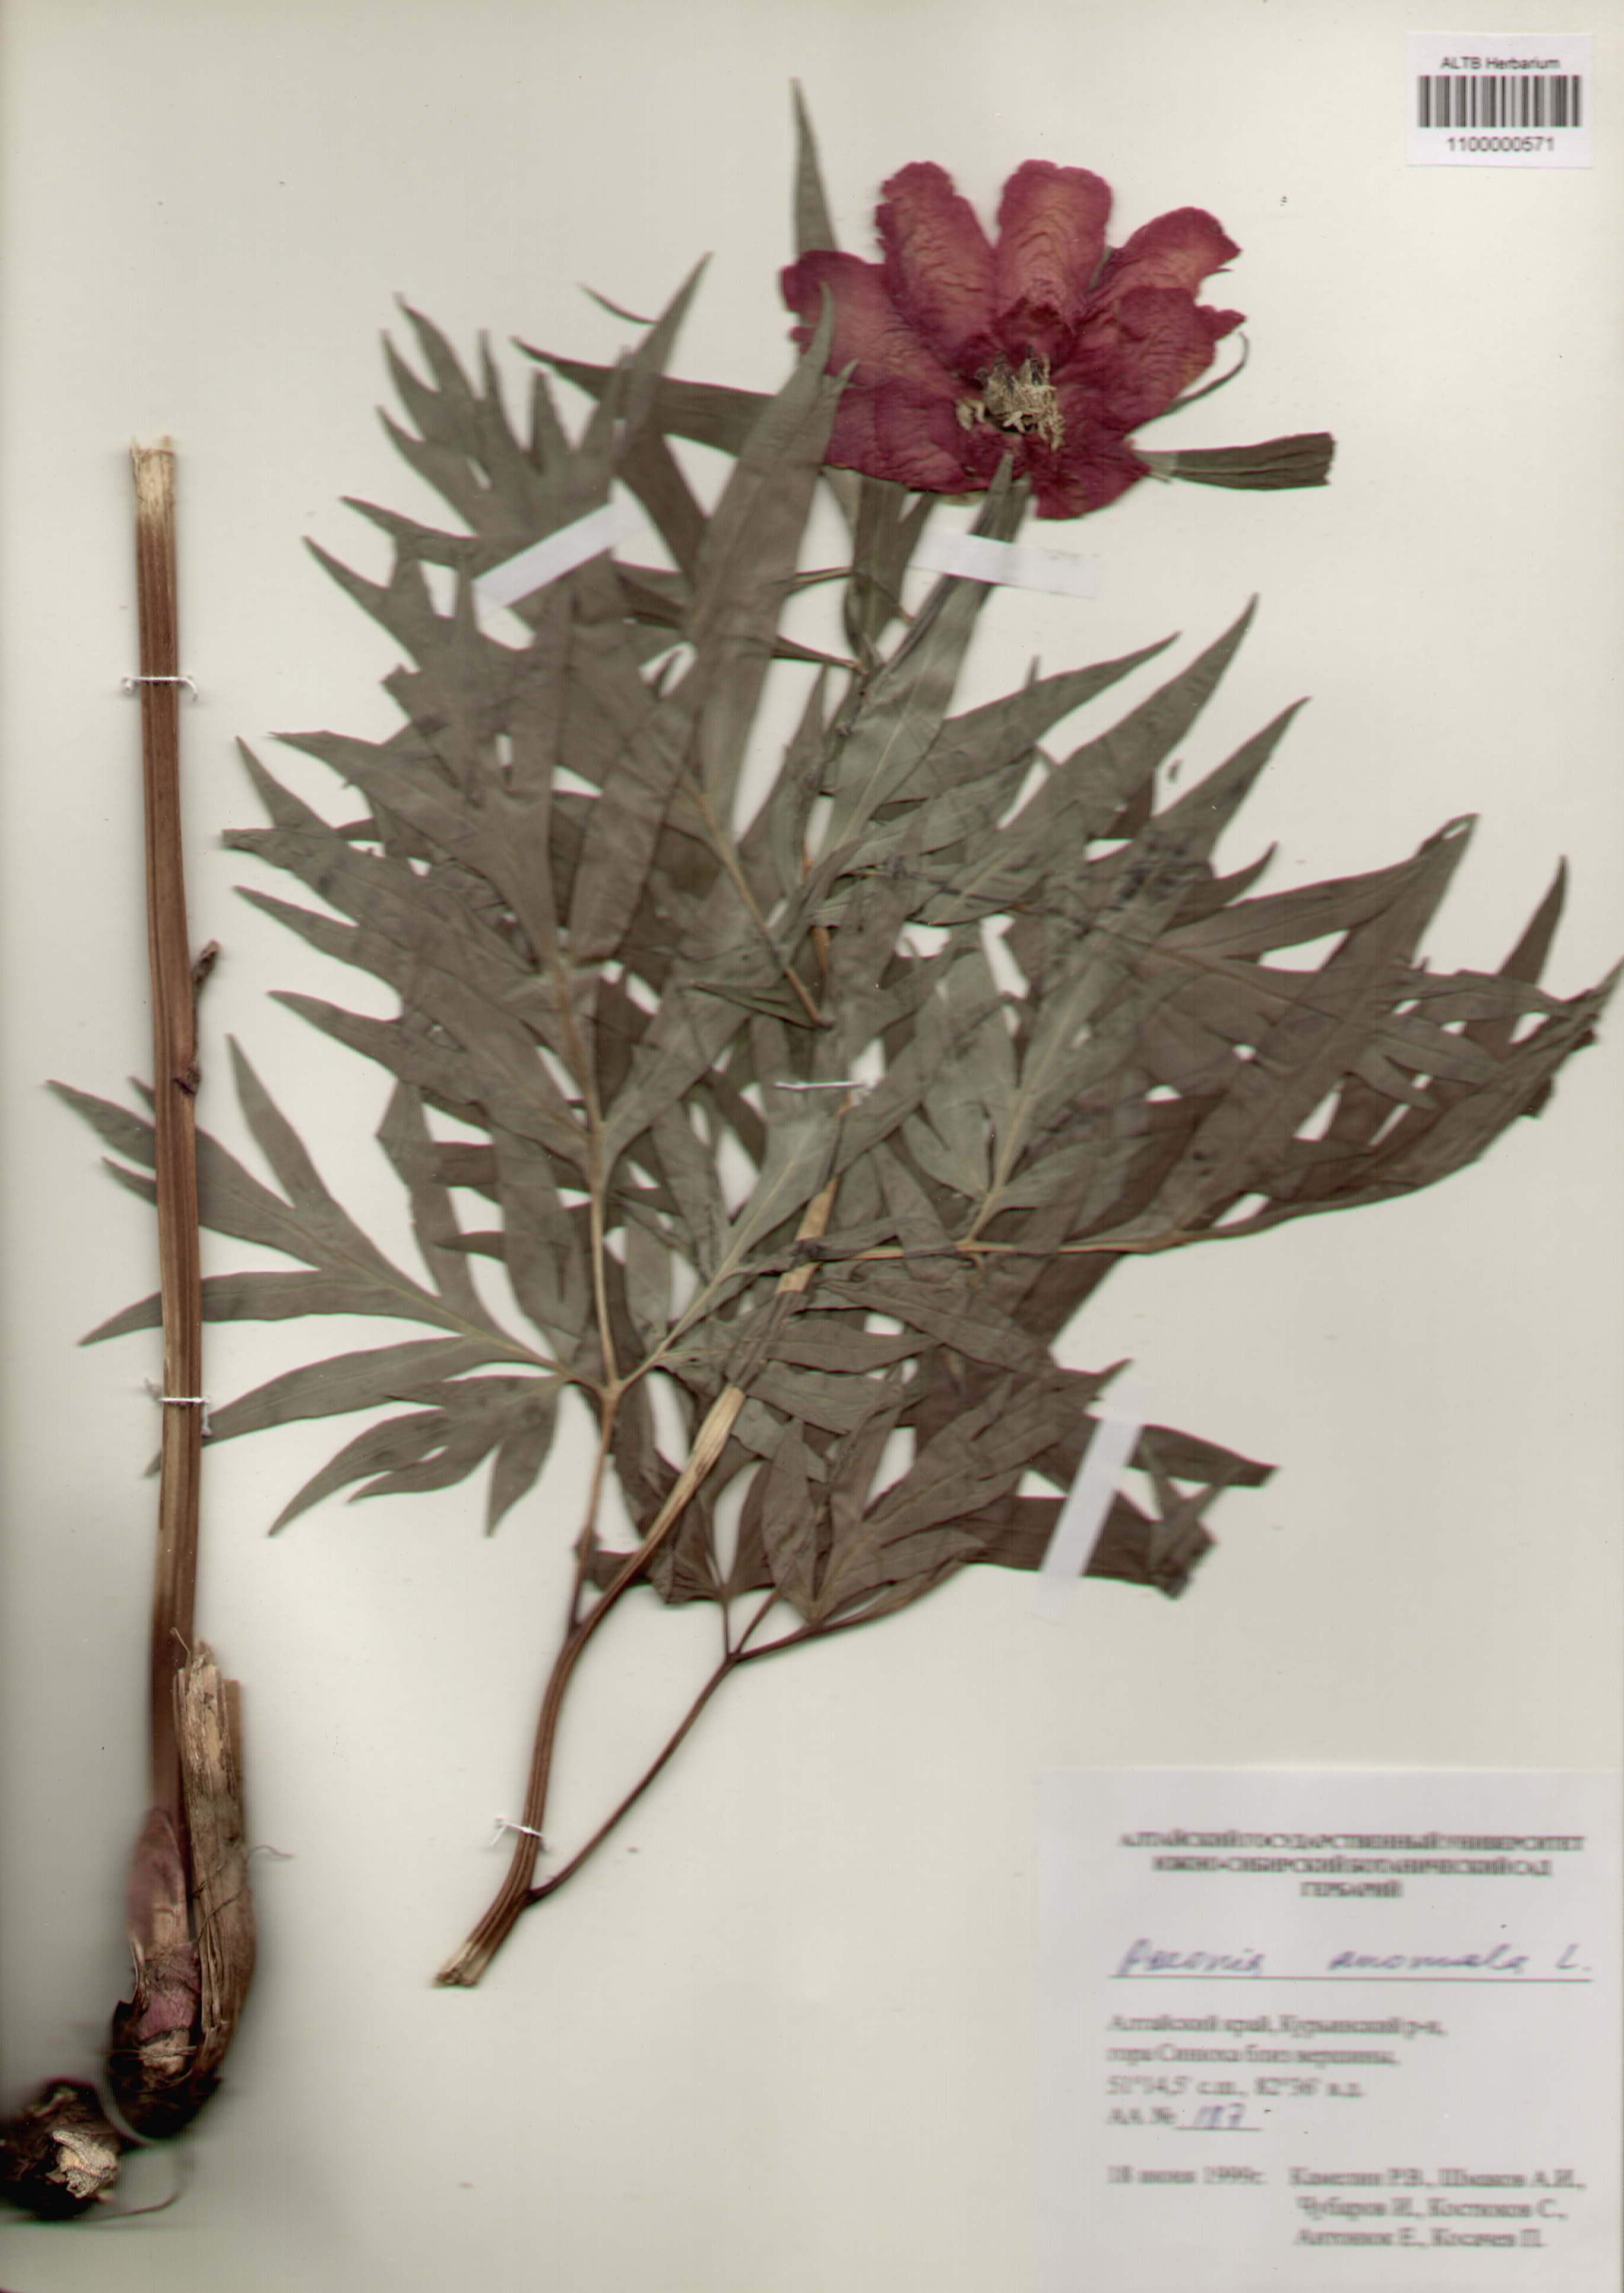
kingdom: Plantae
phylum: Tracheophyta
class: Magnoliopsida
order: Saxifragales
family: Paeoniaceae
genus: Paeonia
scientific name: Paeonia anomala
